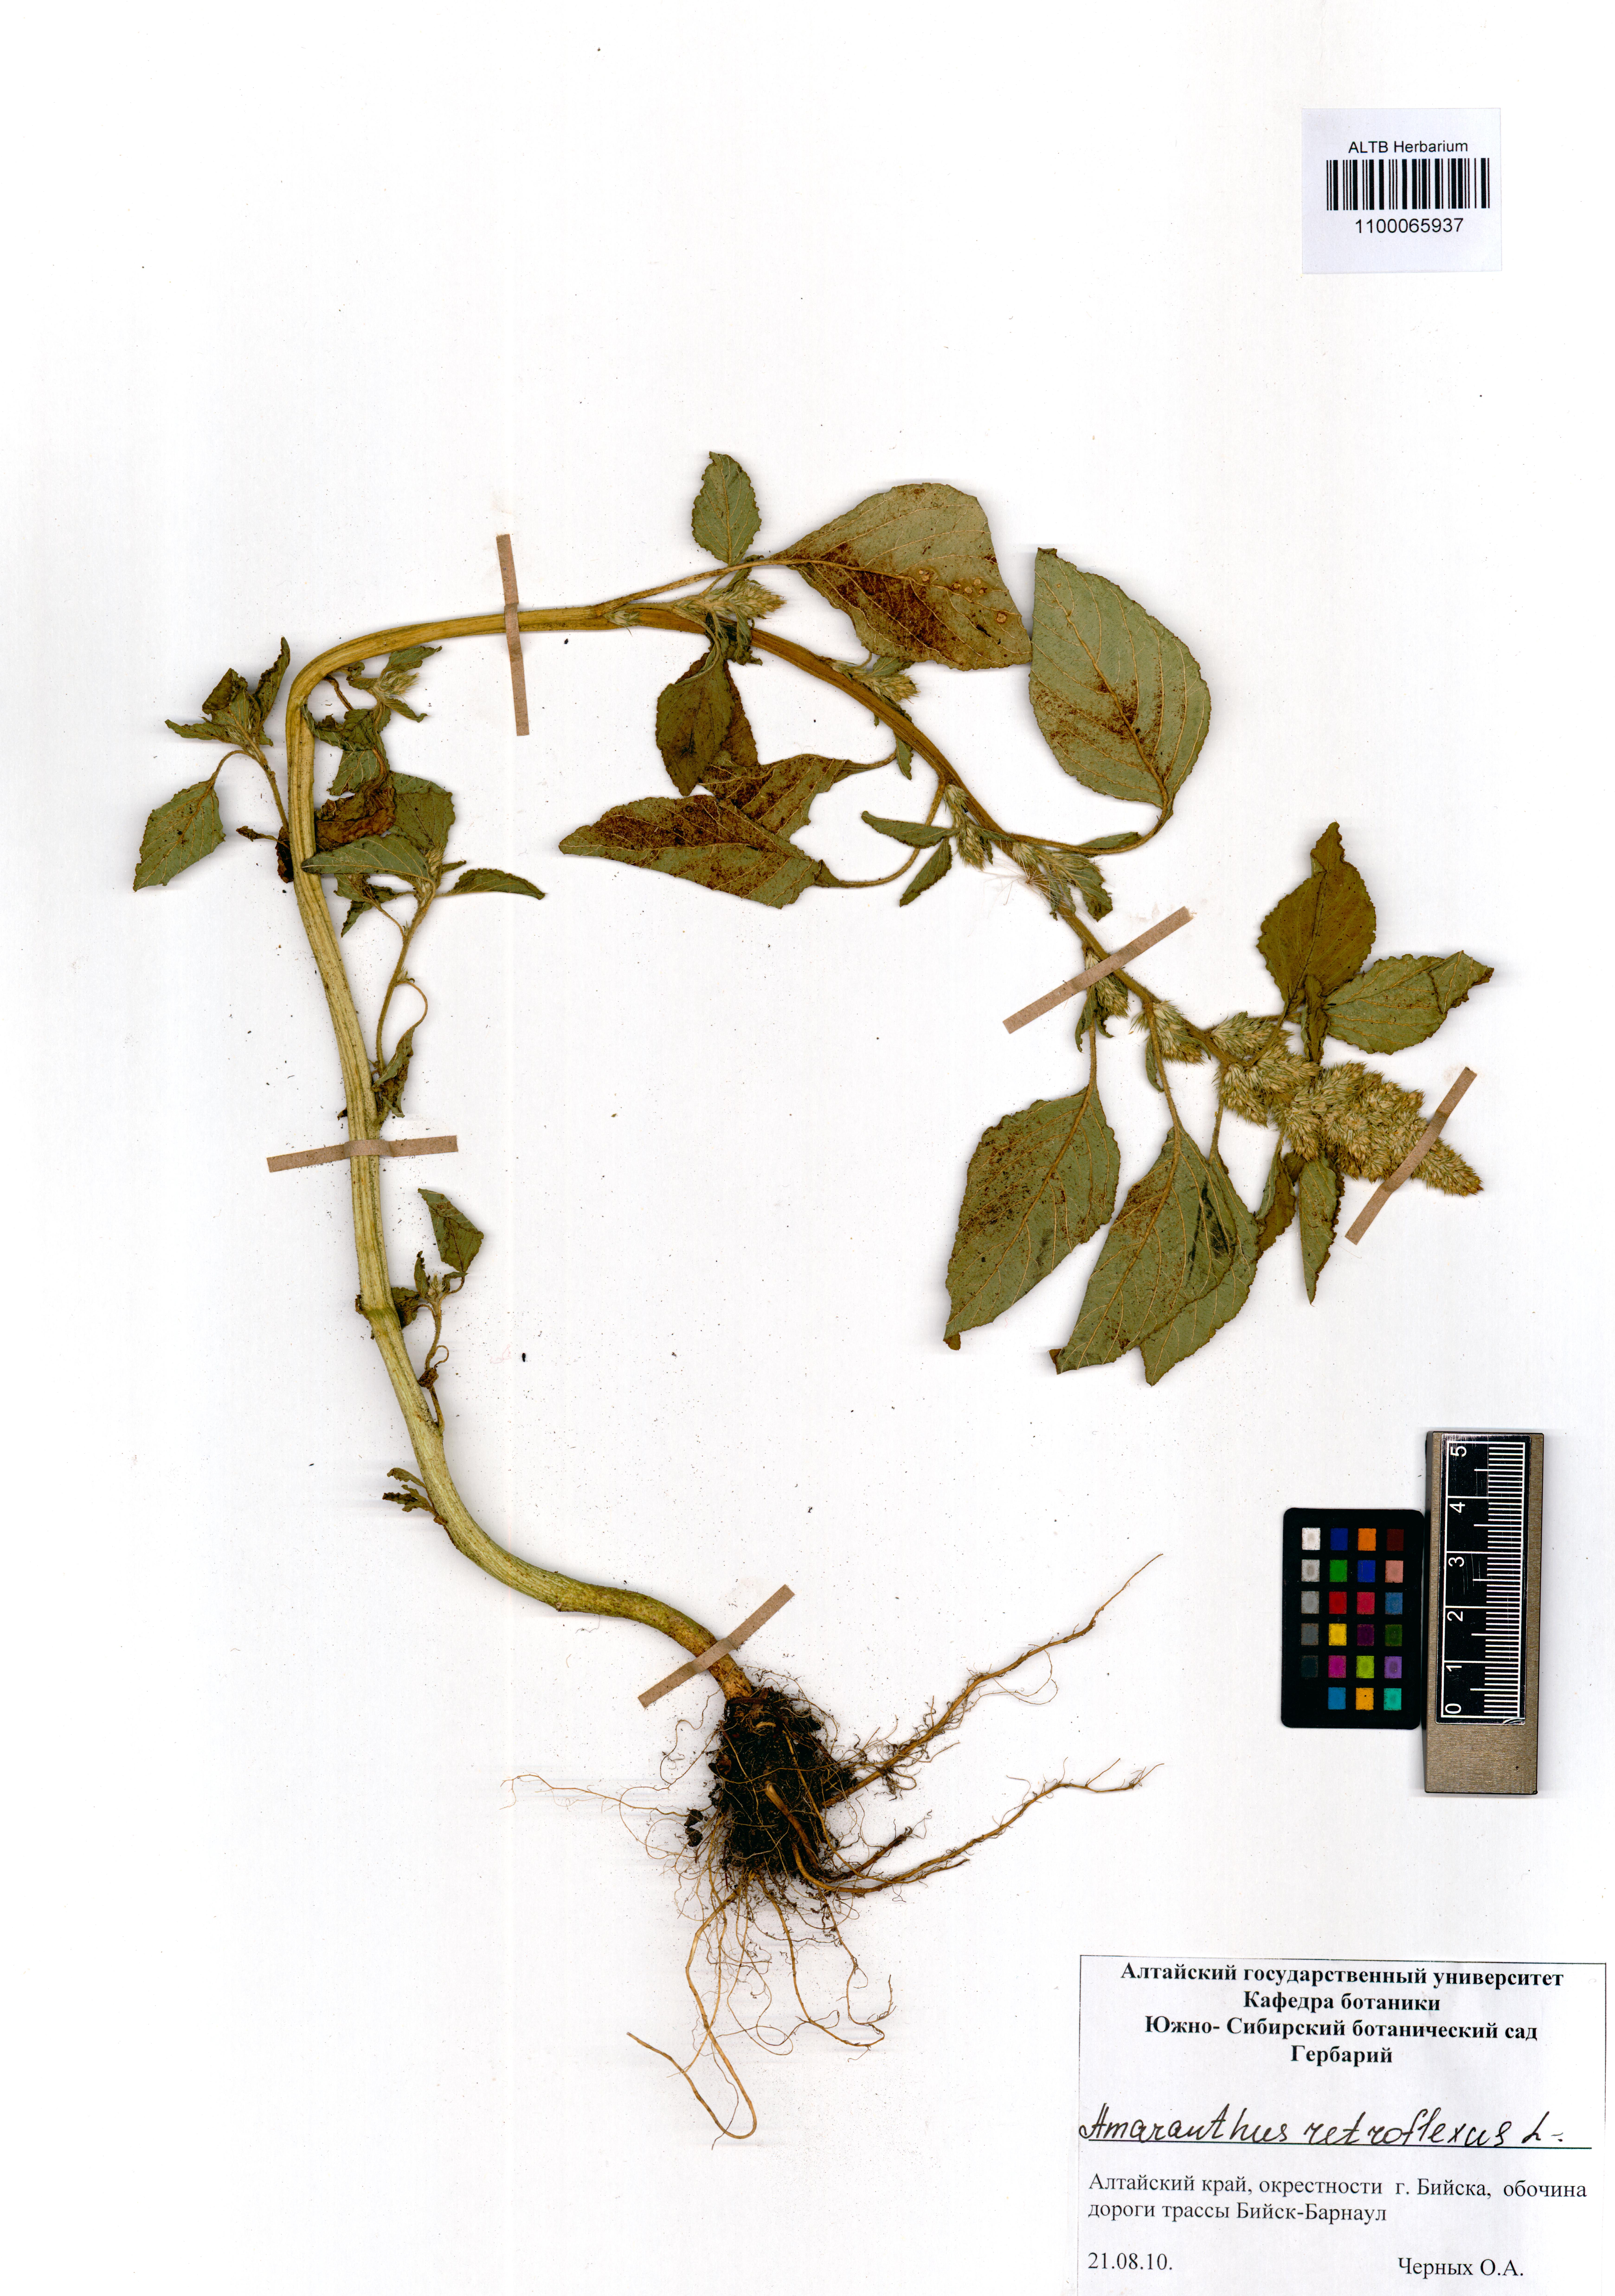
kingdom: Plantae
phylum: Tracheophyta
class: Magnoliopsida
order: Caryophyllales
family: Amaranthaceae
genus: Amaranthus
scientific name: Amaranthus retroflexus
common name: Redroot amaranth
